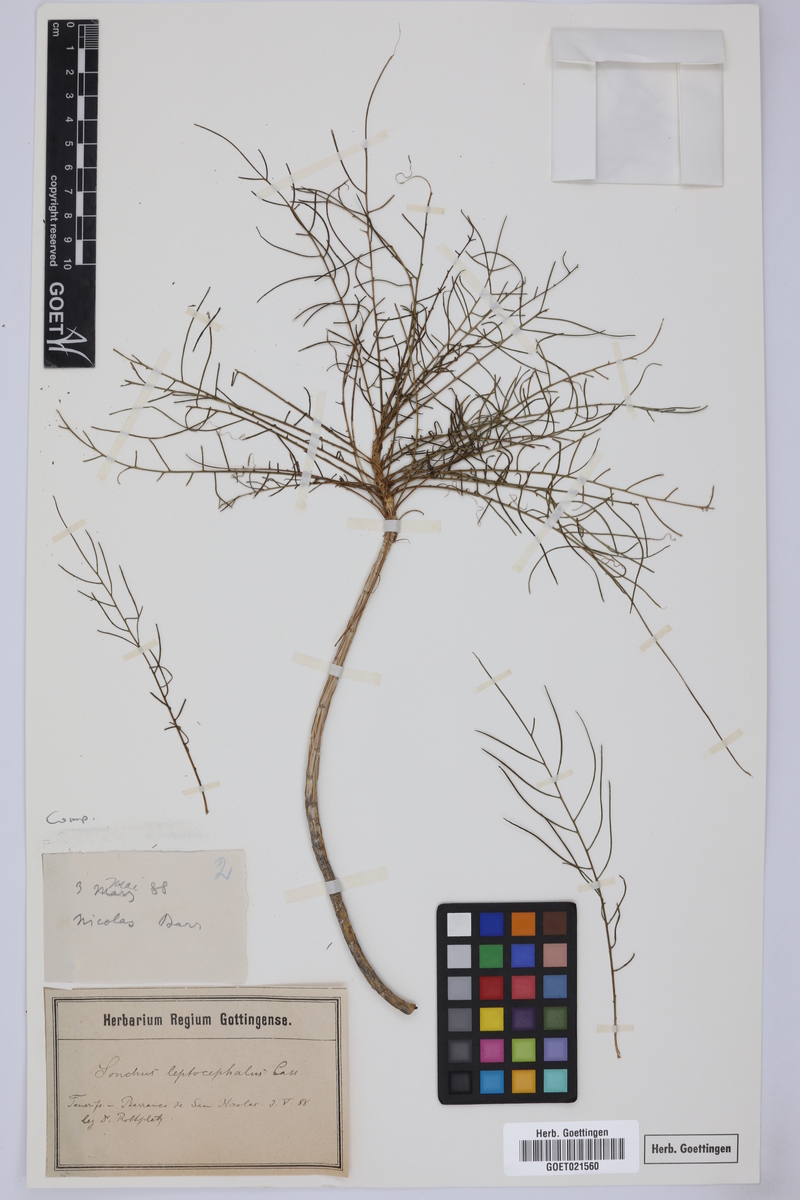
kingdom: Plantae
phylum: Tracheophyta
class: Magnoliopsida
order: Asterales
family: Asteraceae
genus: Sonchus
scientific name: Sonchus leptocephalus
